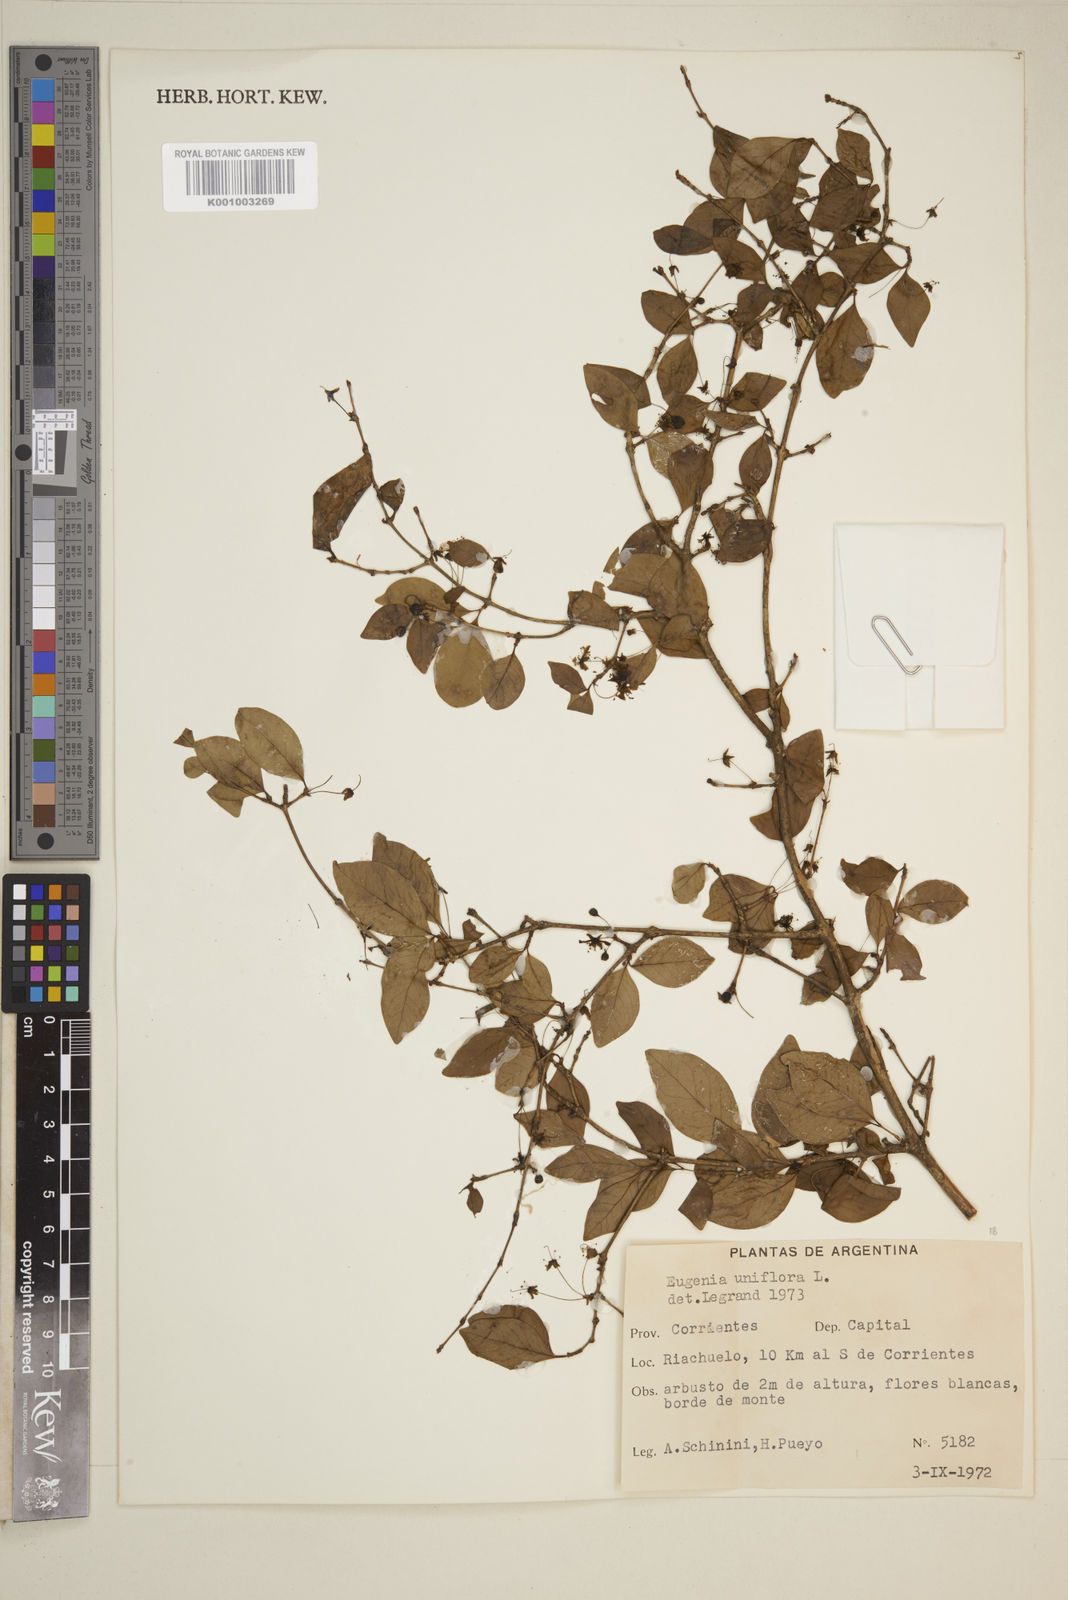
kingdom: Plantae
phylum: Tracheophyta
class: Magnoliopsida
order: Myrtales
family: Myrtaceae
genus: Eugenia
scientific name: Eugenia uniflora
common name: Surinam cherry
